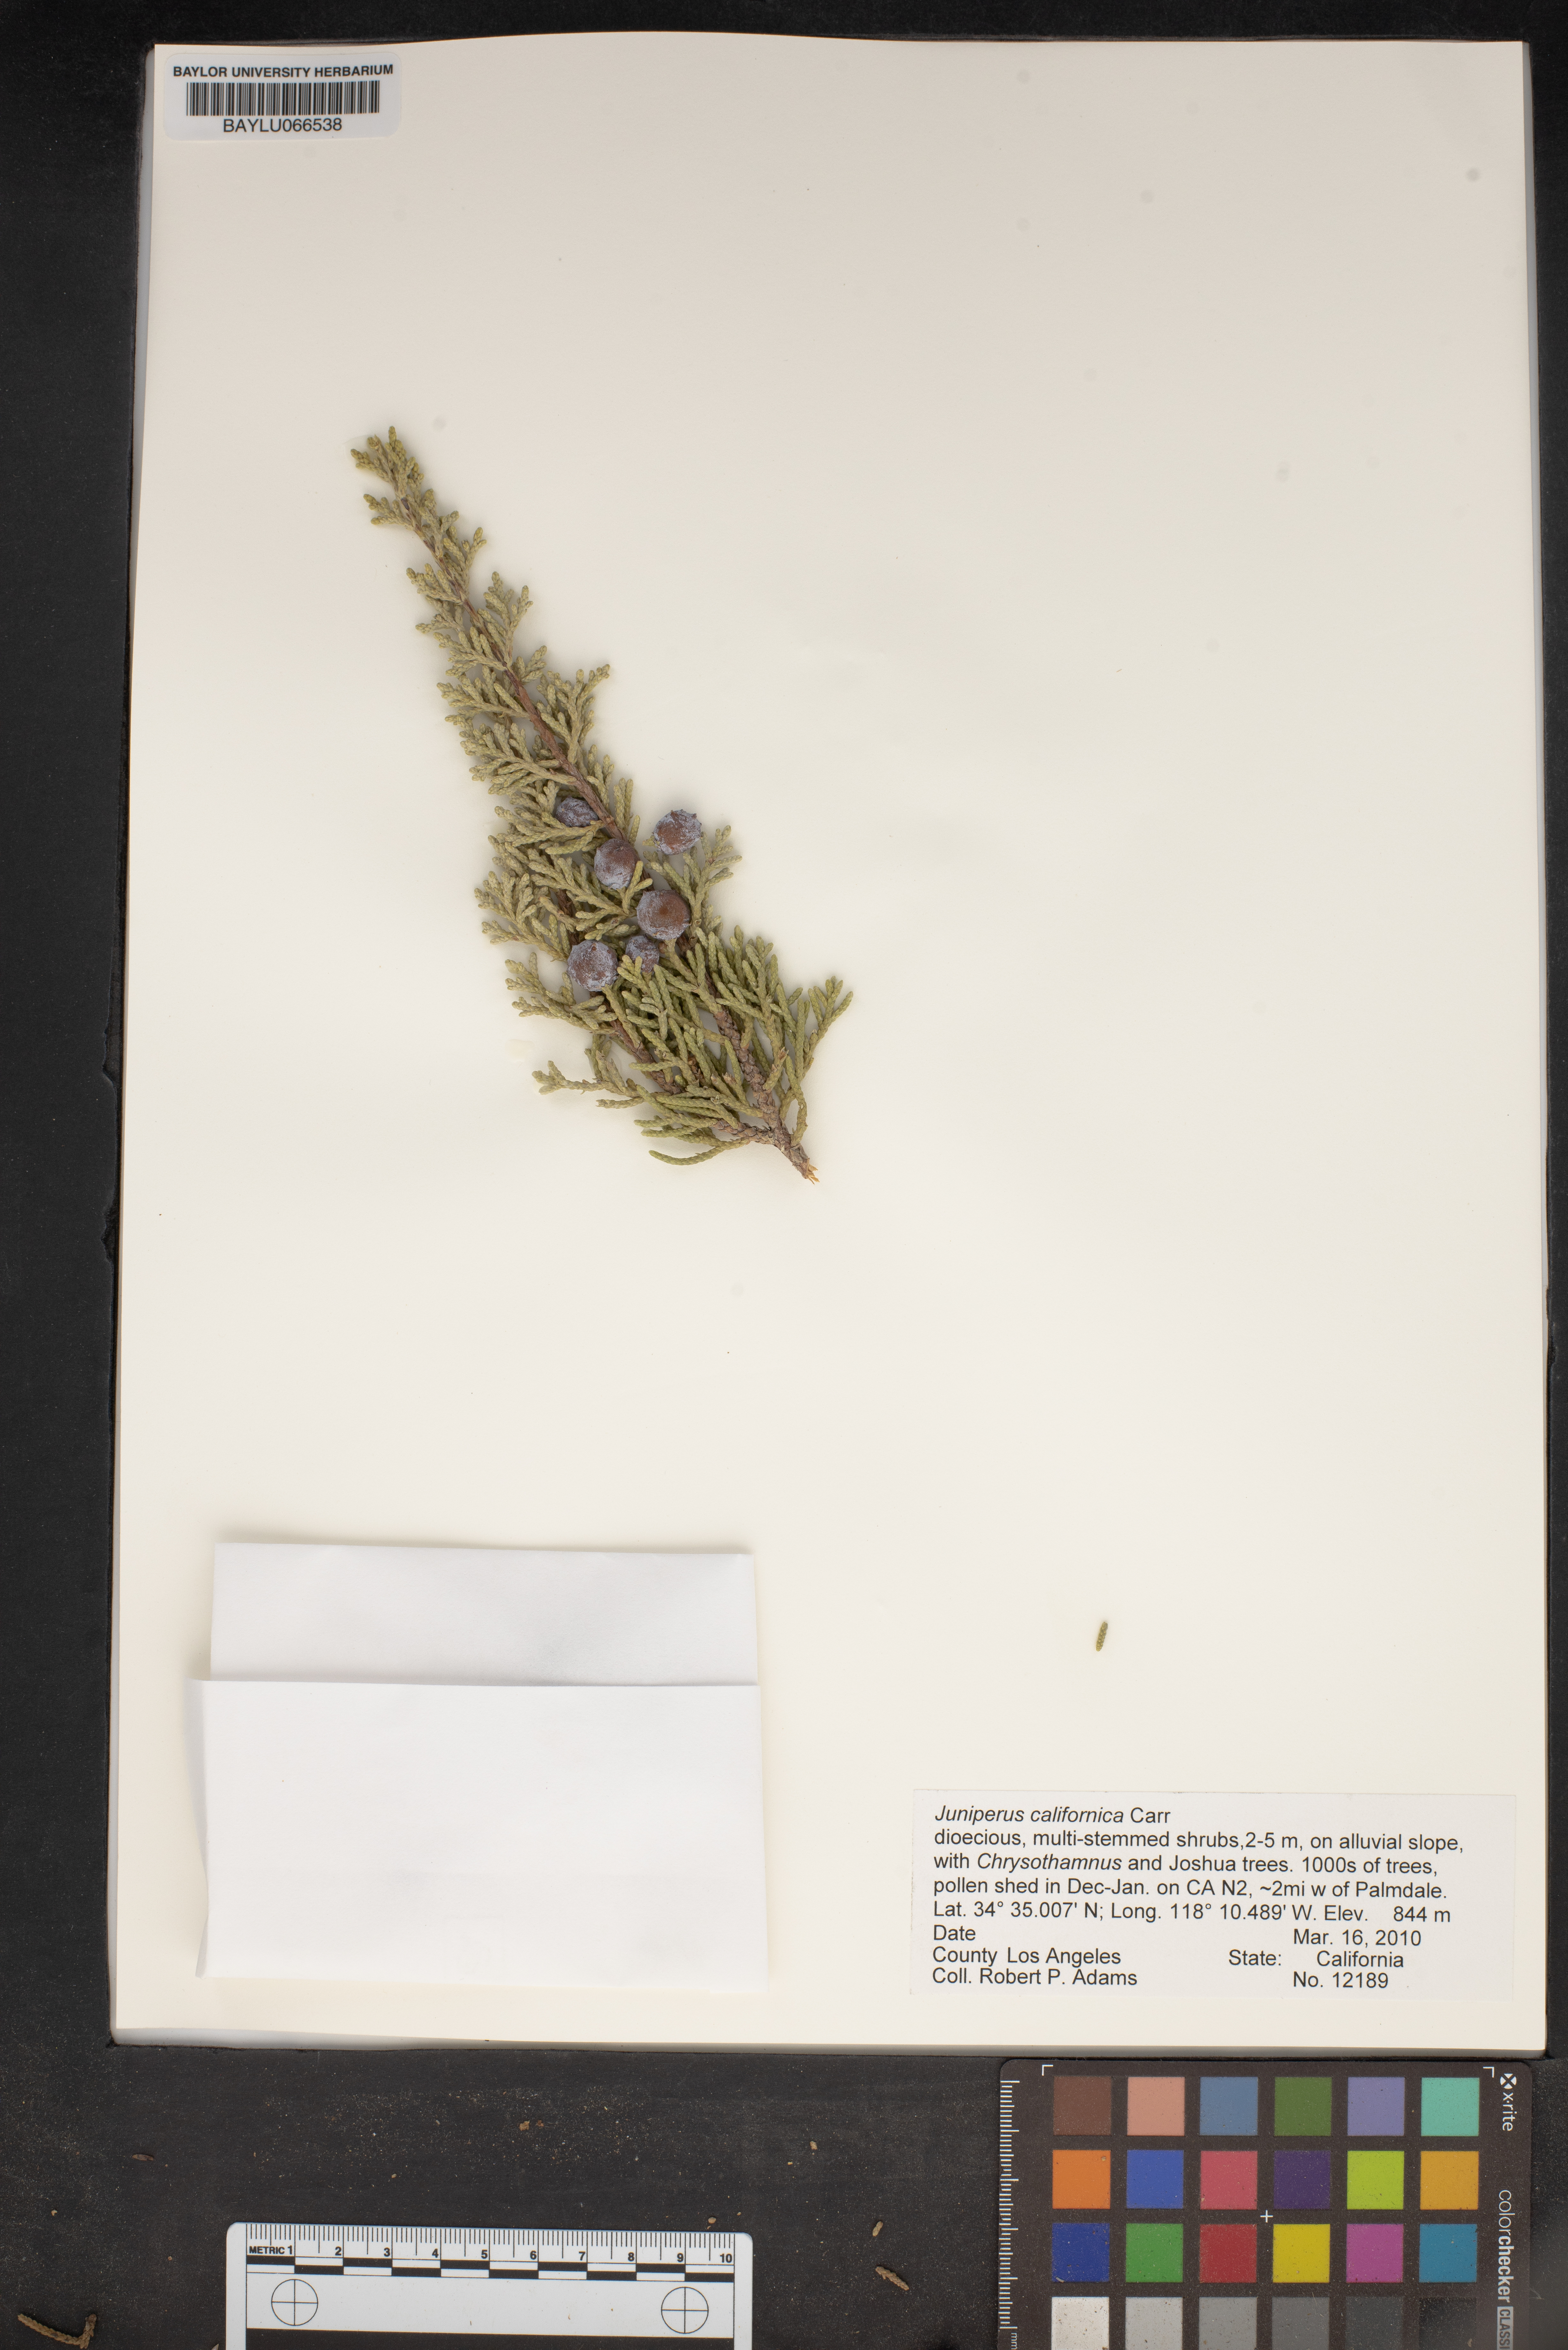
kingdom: Plantae
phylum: Tracheophyta
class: Pinopsida
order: Pinales
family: Cupressaceae
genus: Juniperus
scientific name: Juniperus californica
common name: California juniper
